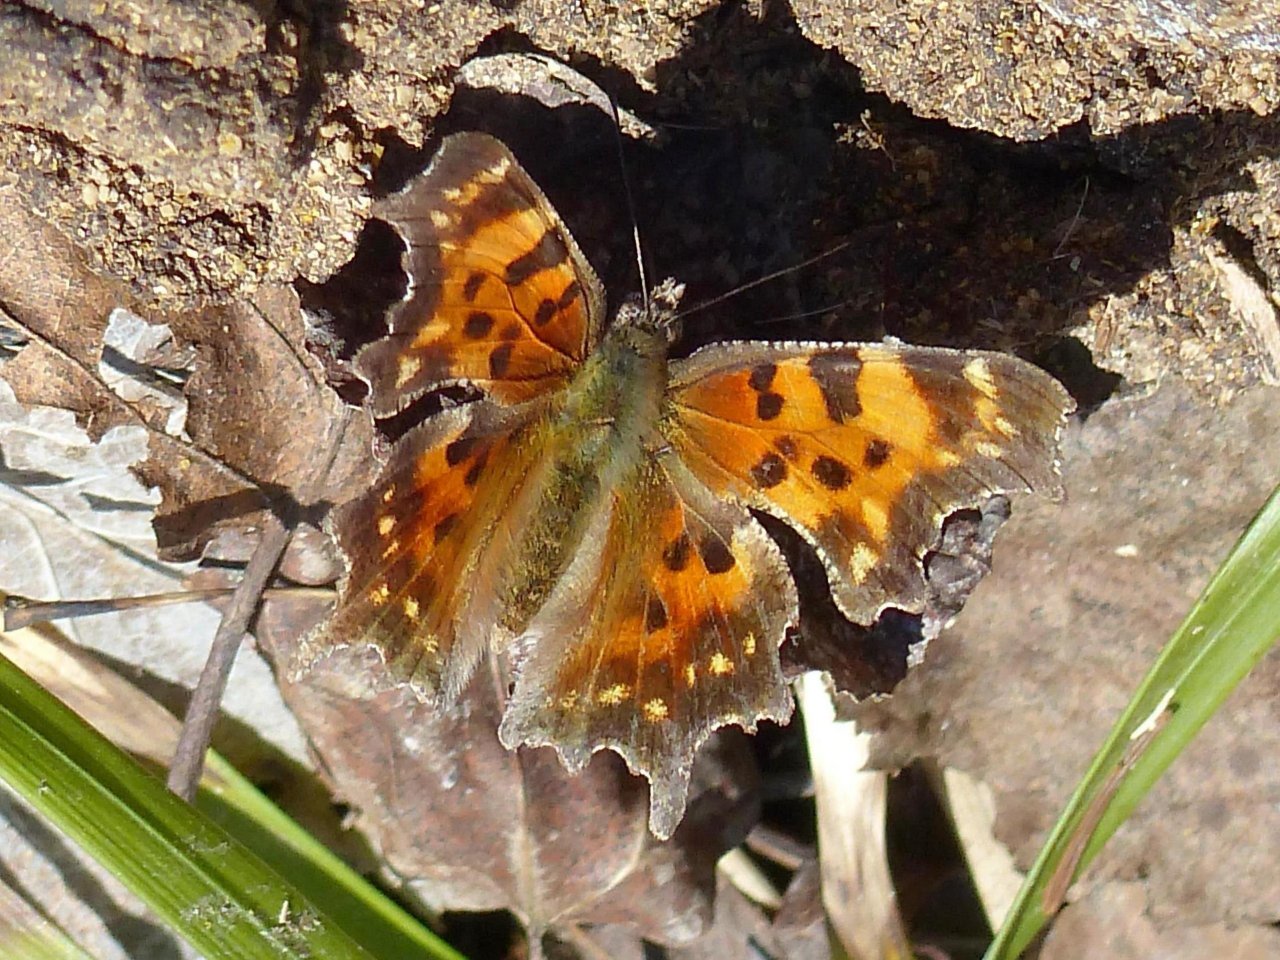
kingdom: Animalia
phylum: Arthropoda
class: Insecta
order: Lepidoptera
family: Nymphalidae
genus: Polygonia
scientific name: Polygonia faunus
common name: Green Comma
